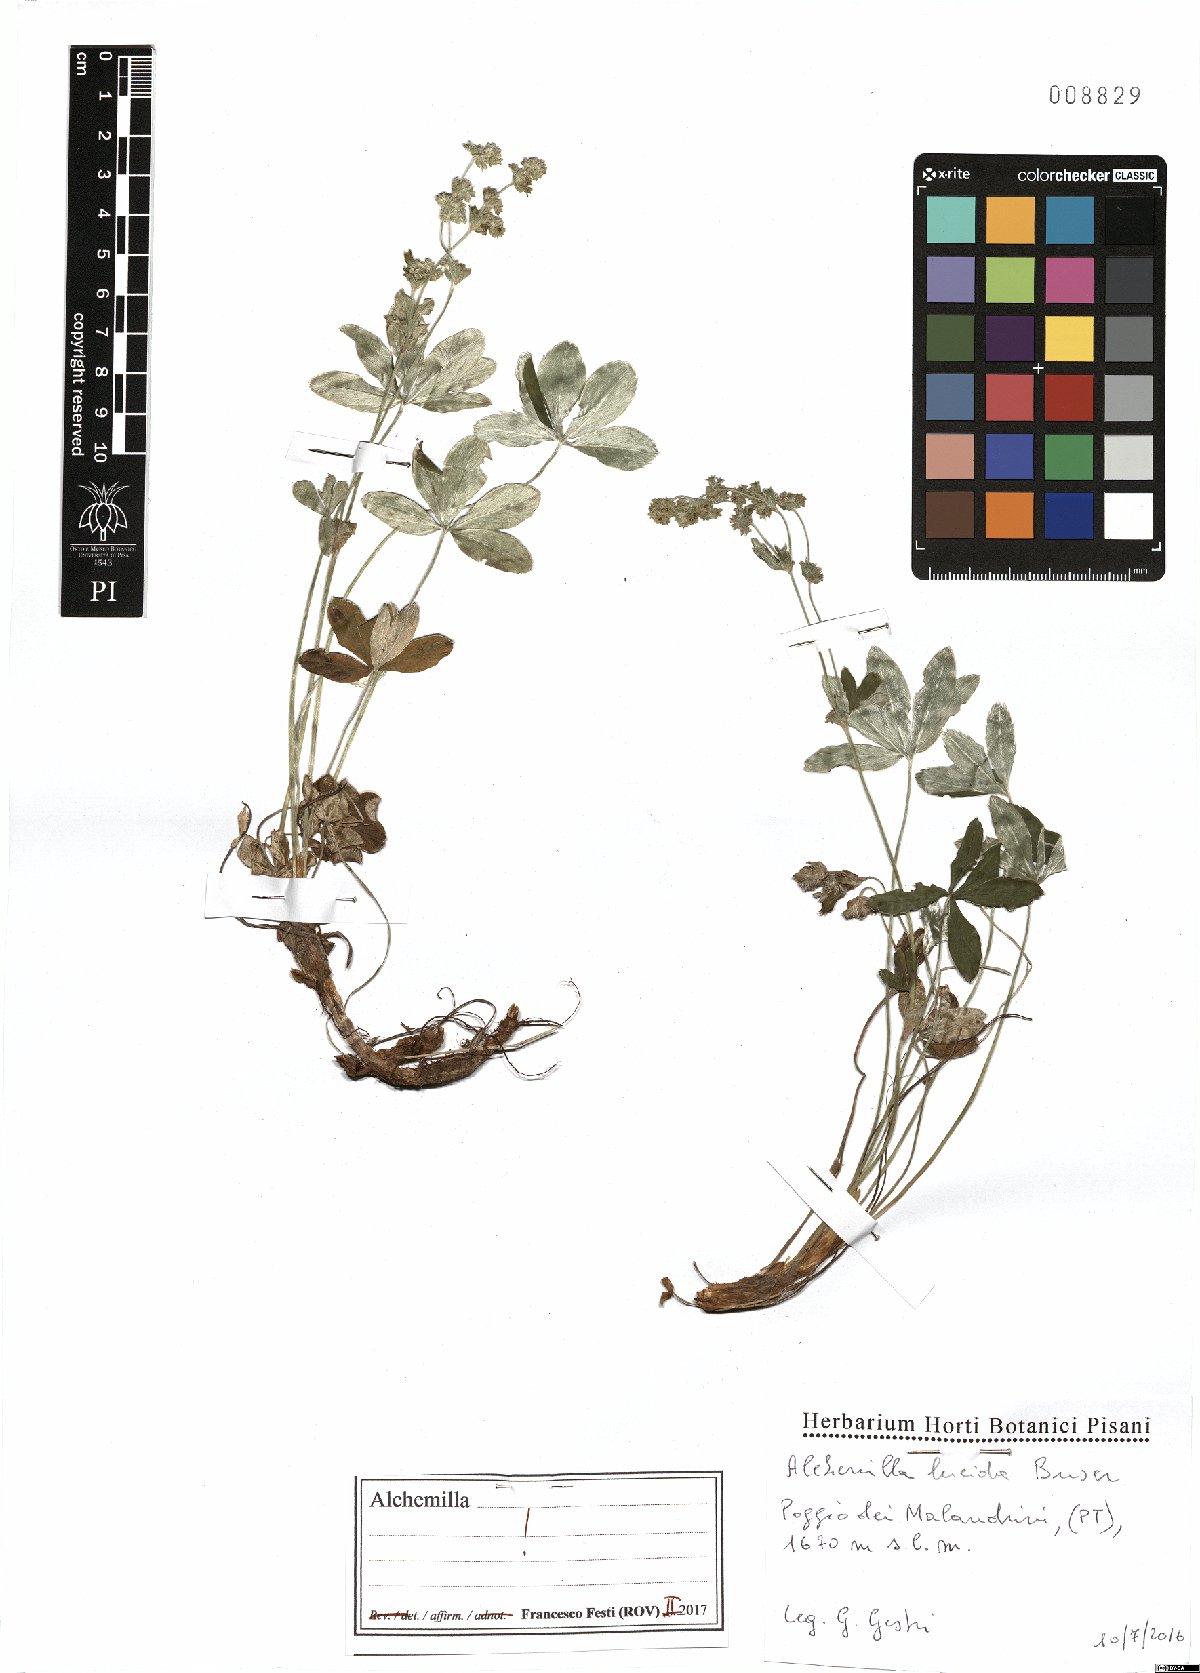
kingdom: Plantae
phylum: Tracheophyta
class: Magnoliopsida
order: Rosales
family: Rosaceae
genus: Alchemilla
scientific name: Alchemilla lucida
